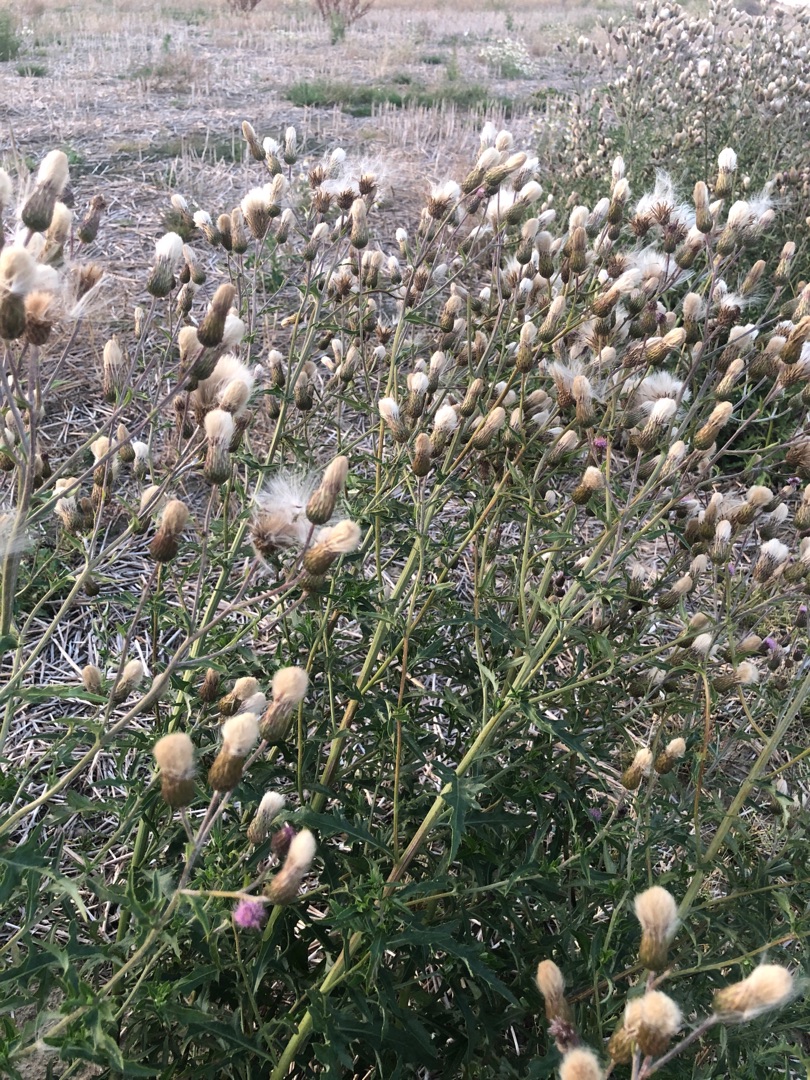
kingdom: Plantae
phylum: Tracheophyta
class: Magnoliopsida
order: Asterales
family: Asteraceae
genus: Cirsium
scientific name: Cirsium arvense
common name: Ager-tidsel
